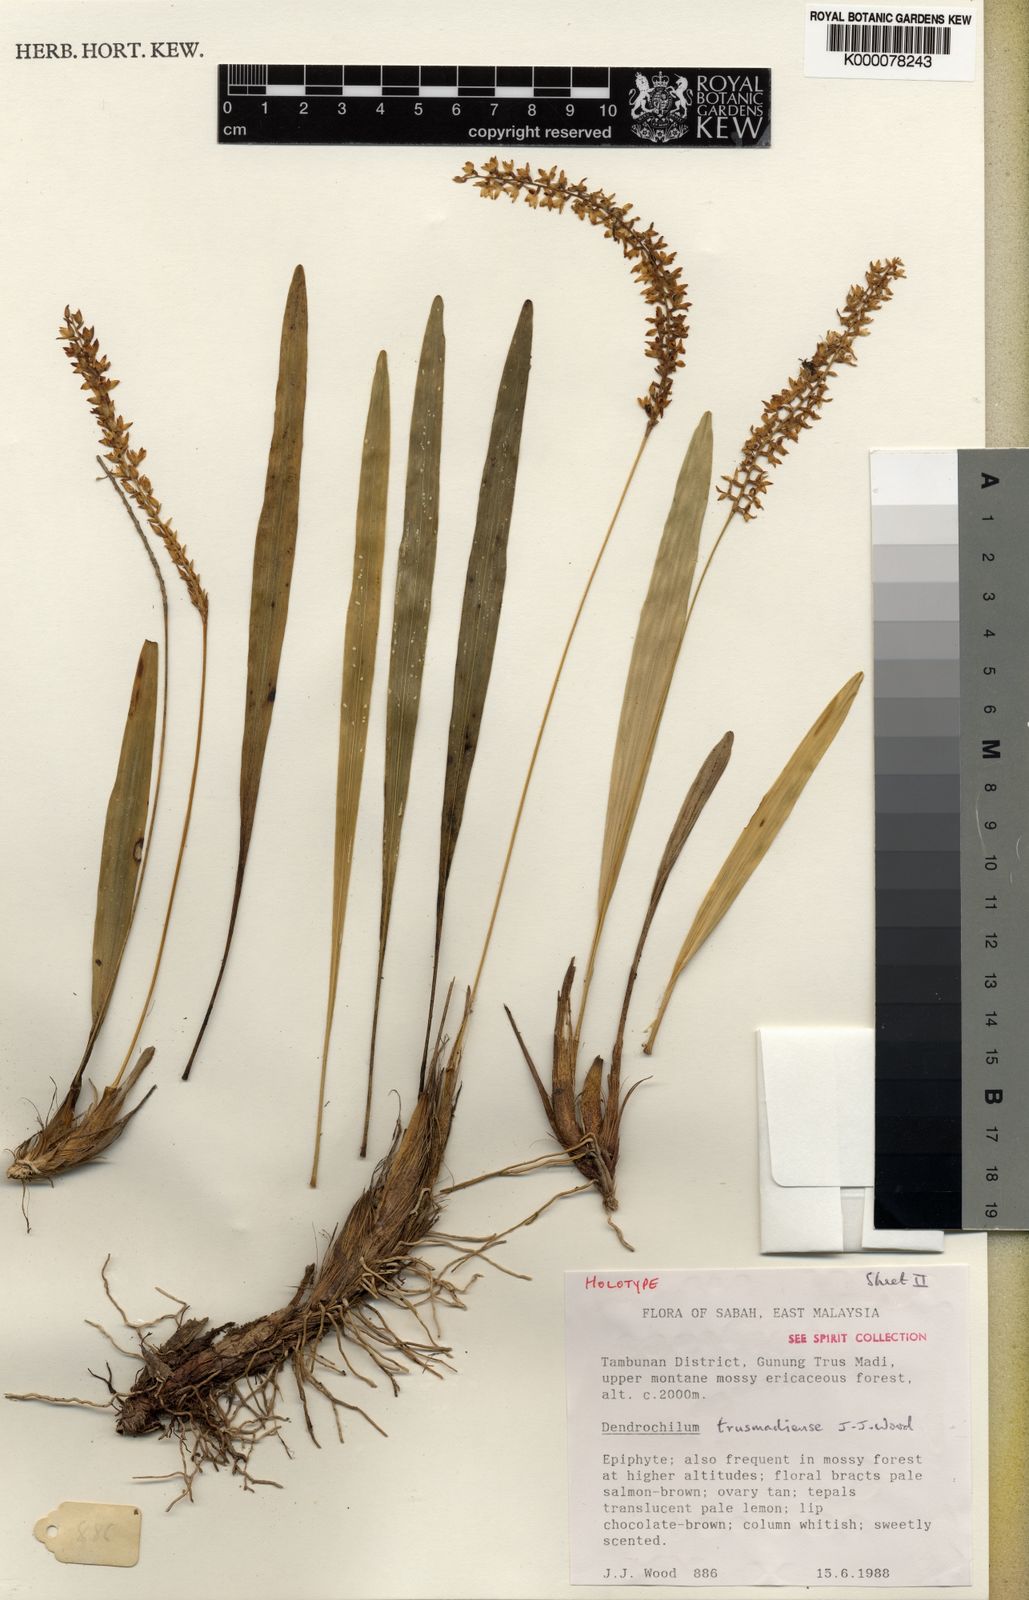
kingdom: Plantae
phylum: Tracheophyta
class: Liliopsida
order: Asparagales
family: Orchidaceae
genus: Coelogyne
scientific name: Coelogyne trusmadiensis
